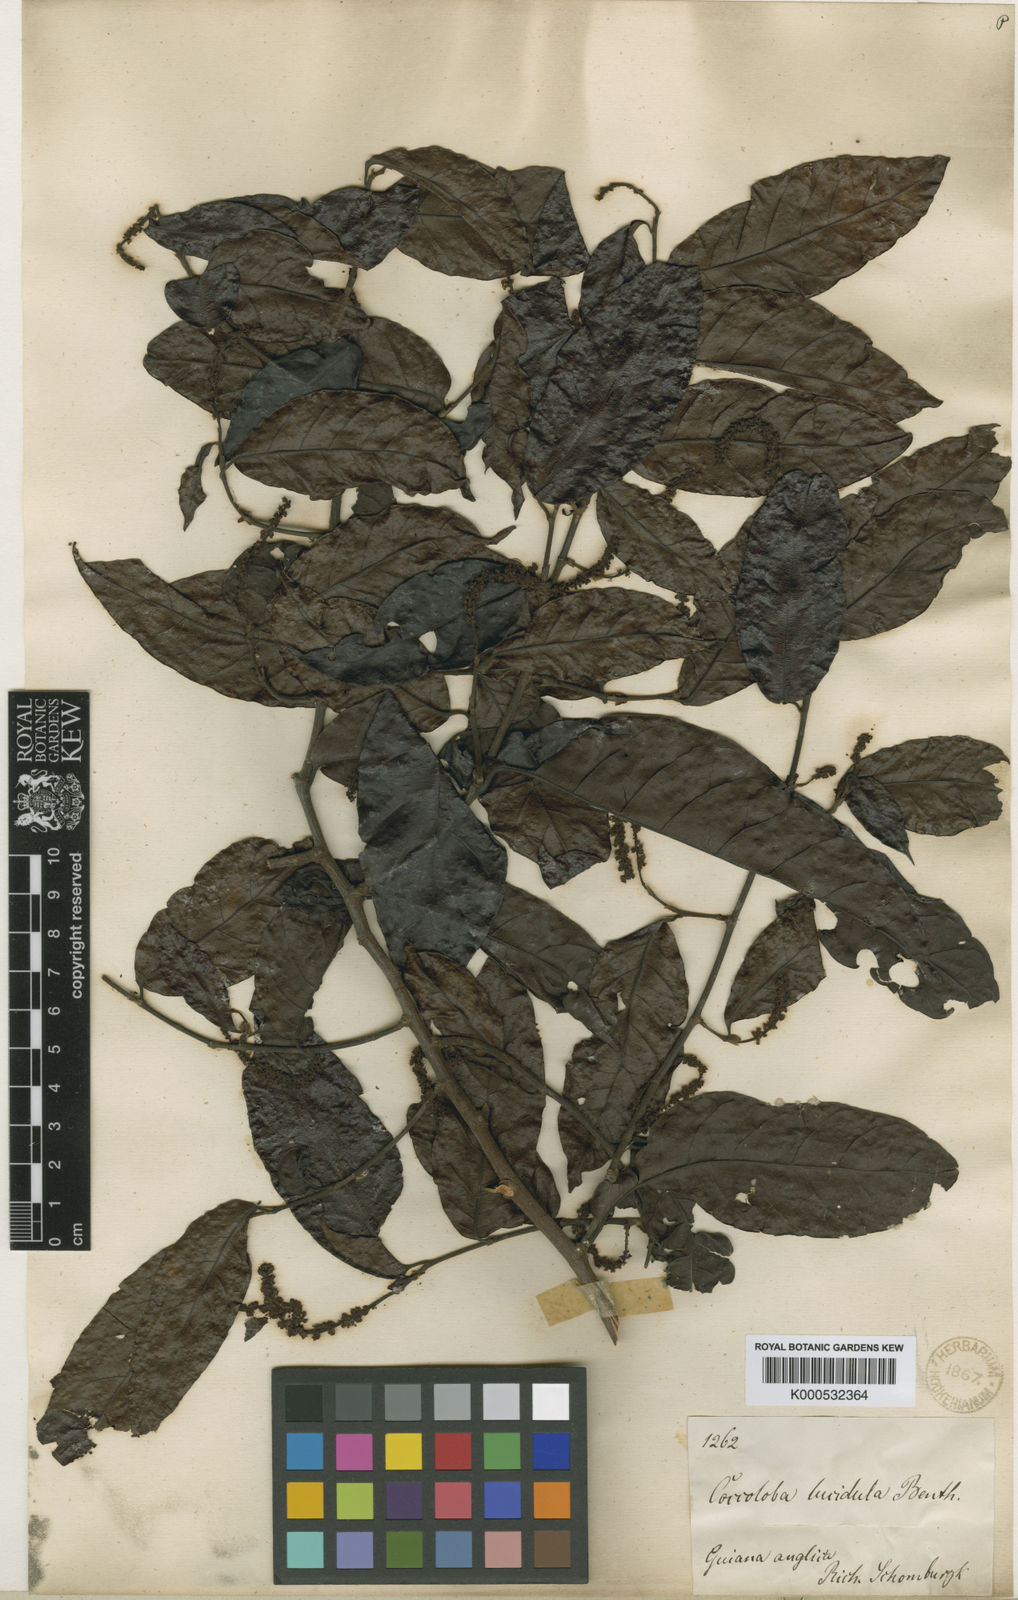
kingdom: Plantae
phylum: Tracheophyta
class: Magnoliopsida
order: Caryophyllales
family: Polygonaceae
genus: Coccoloba
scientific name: Coccoloba lucidula
